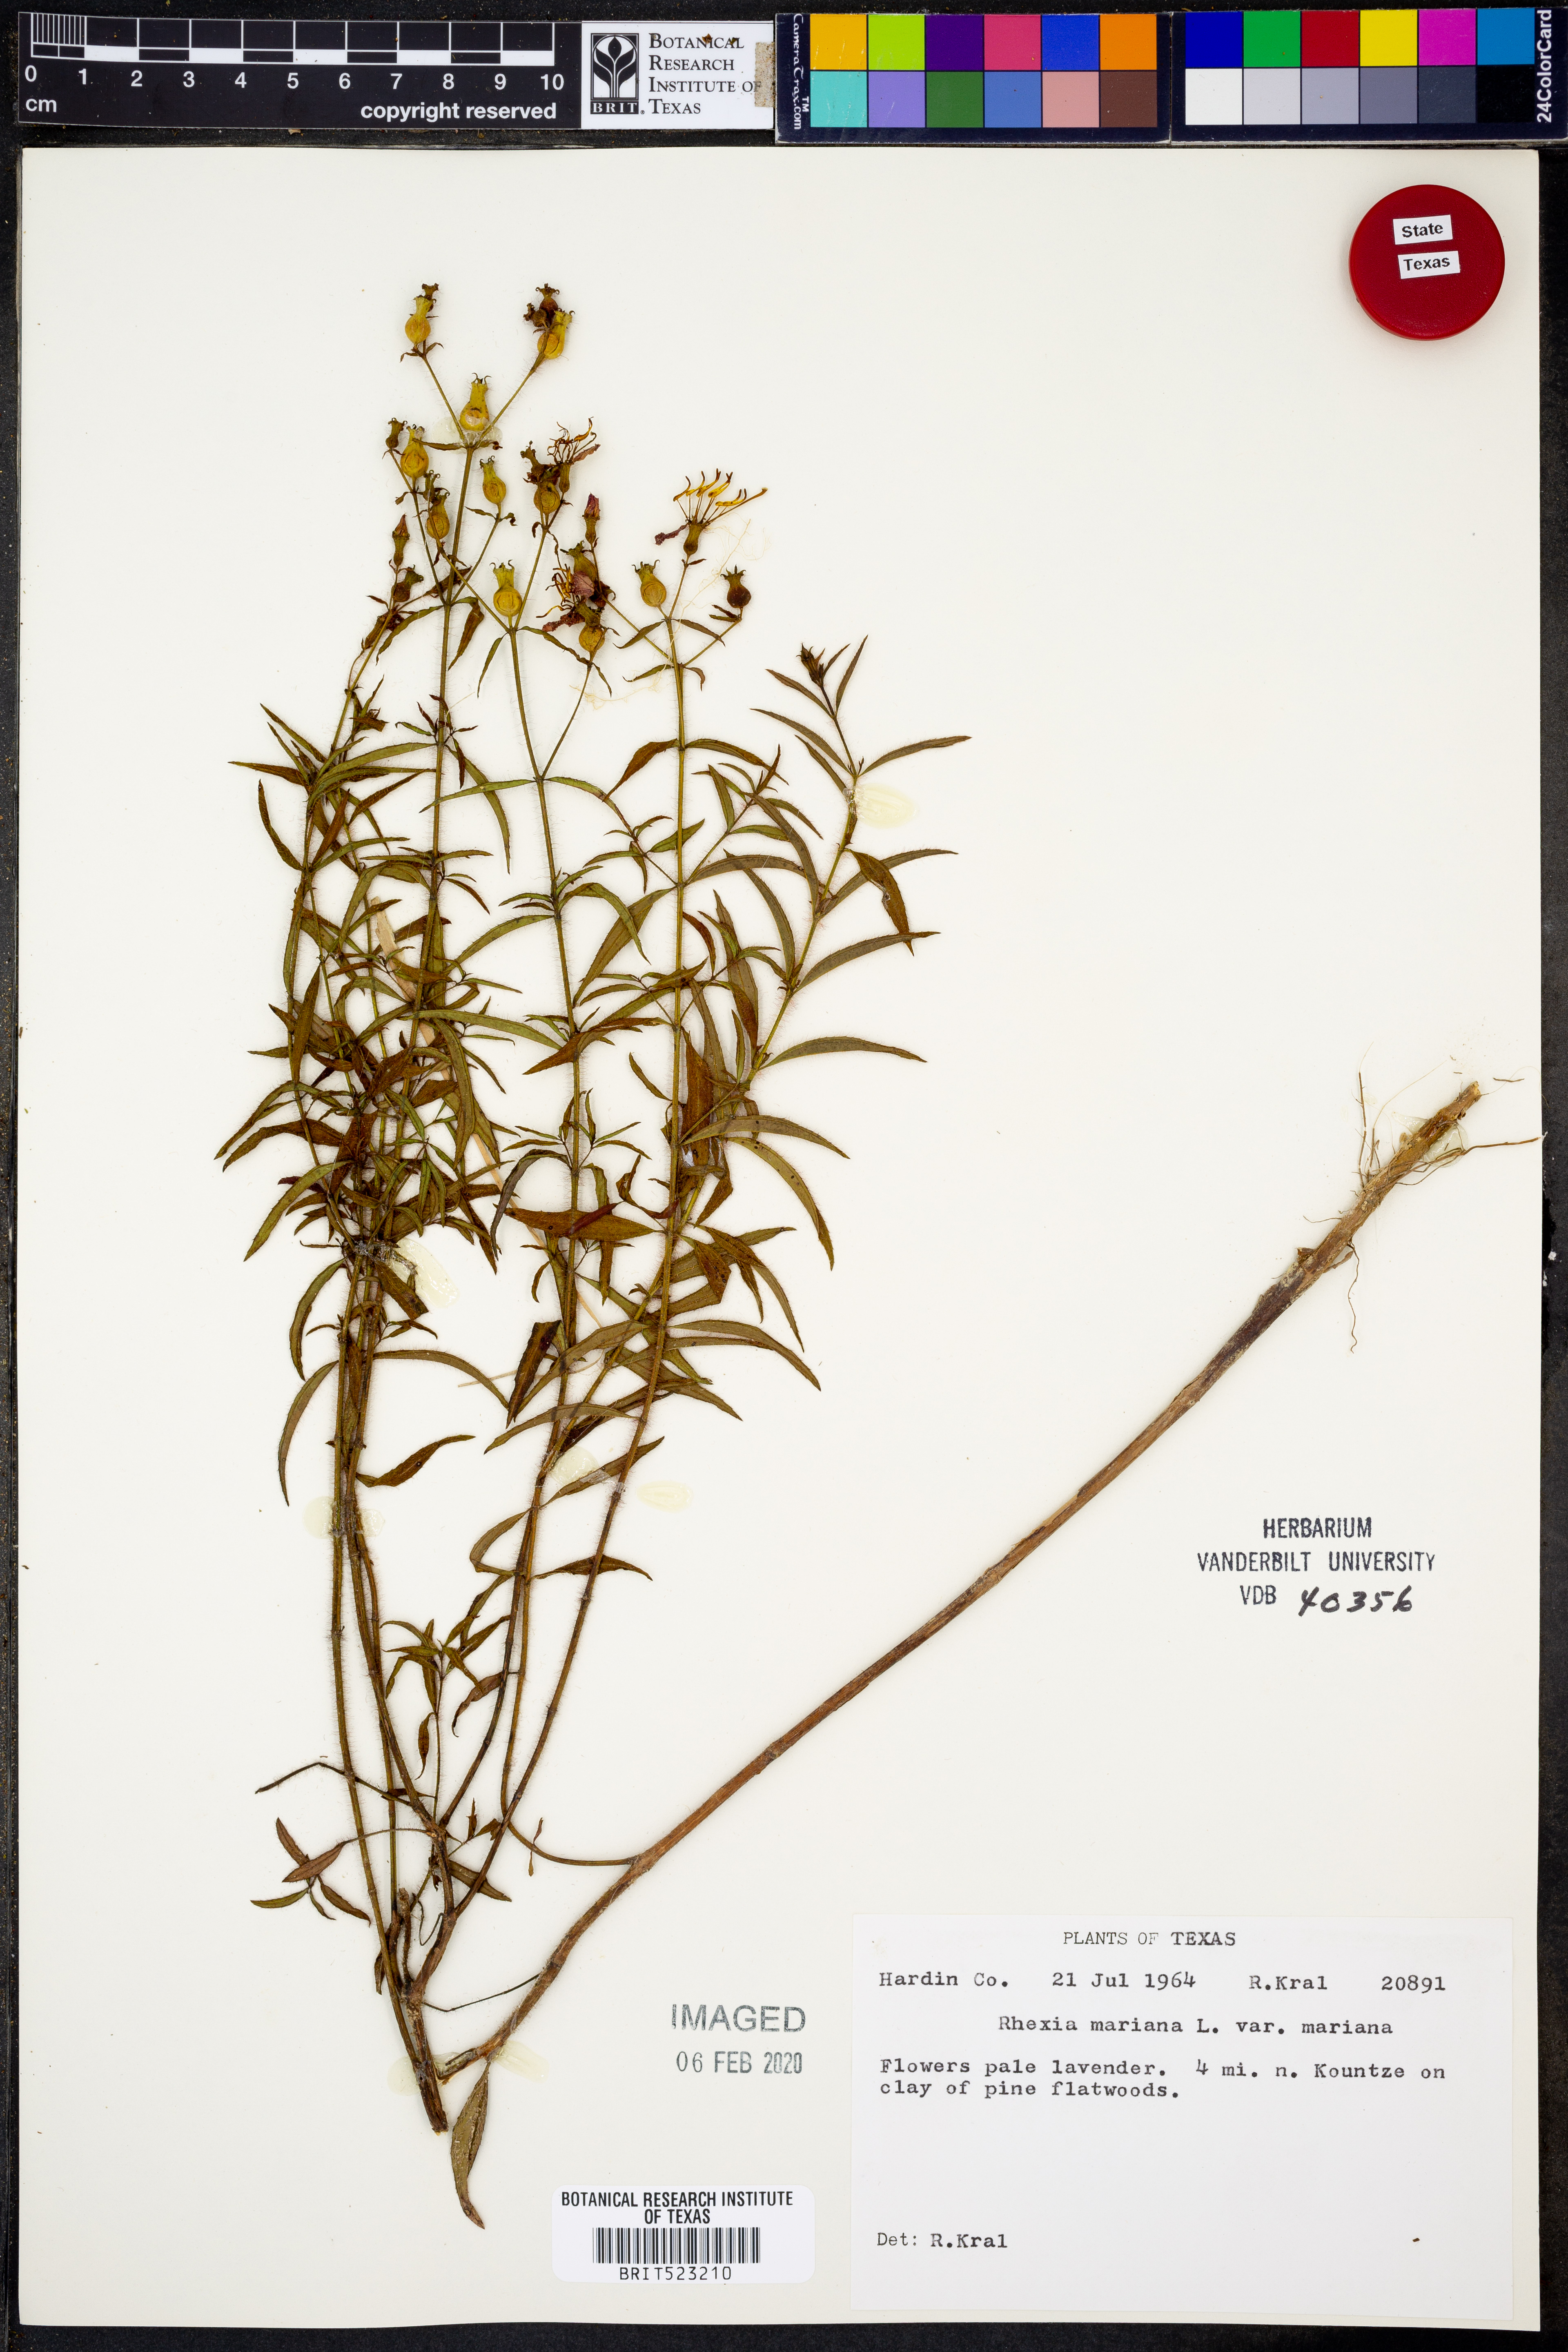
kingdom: Plantae
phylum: Tracheophyta
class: Magnoliopsida
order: Myrtales
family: Melastomataceae
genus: Rhexia
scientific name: Rhexia mariana
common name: Dull meadow-pitcher
